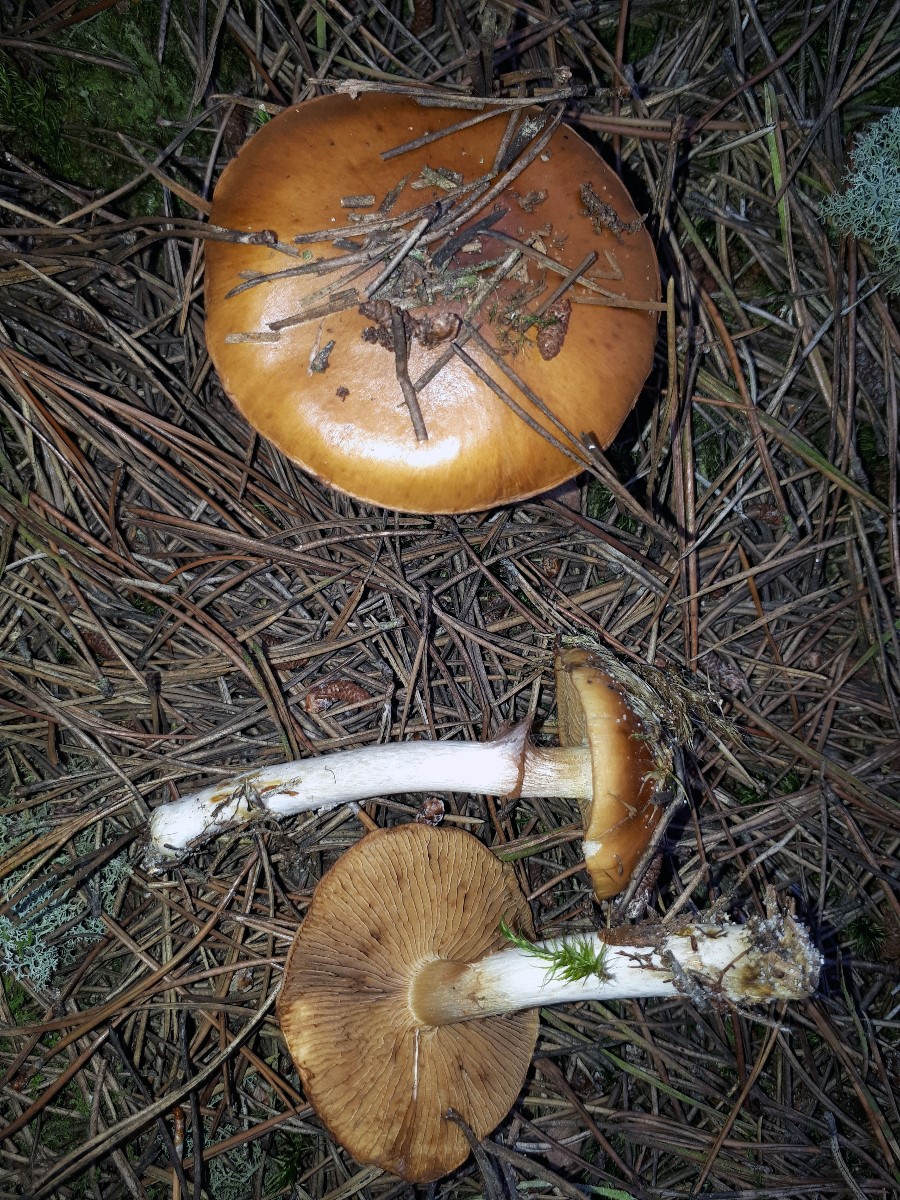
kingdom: Fungi
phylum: Basidiomycota
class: Agaricomycetes
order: Agaricales
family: Cortinariaceae
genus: Cortinarius
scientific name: Cortinarius mucosus
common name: kastaniebrun slørhat
